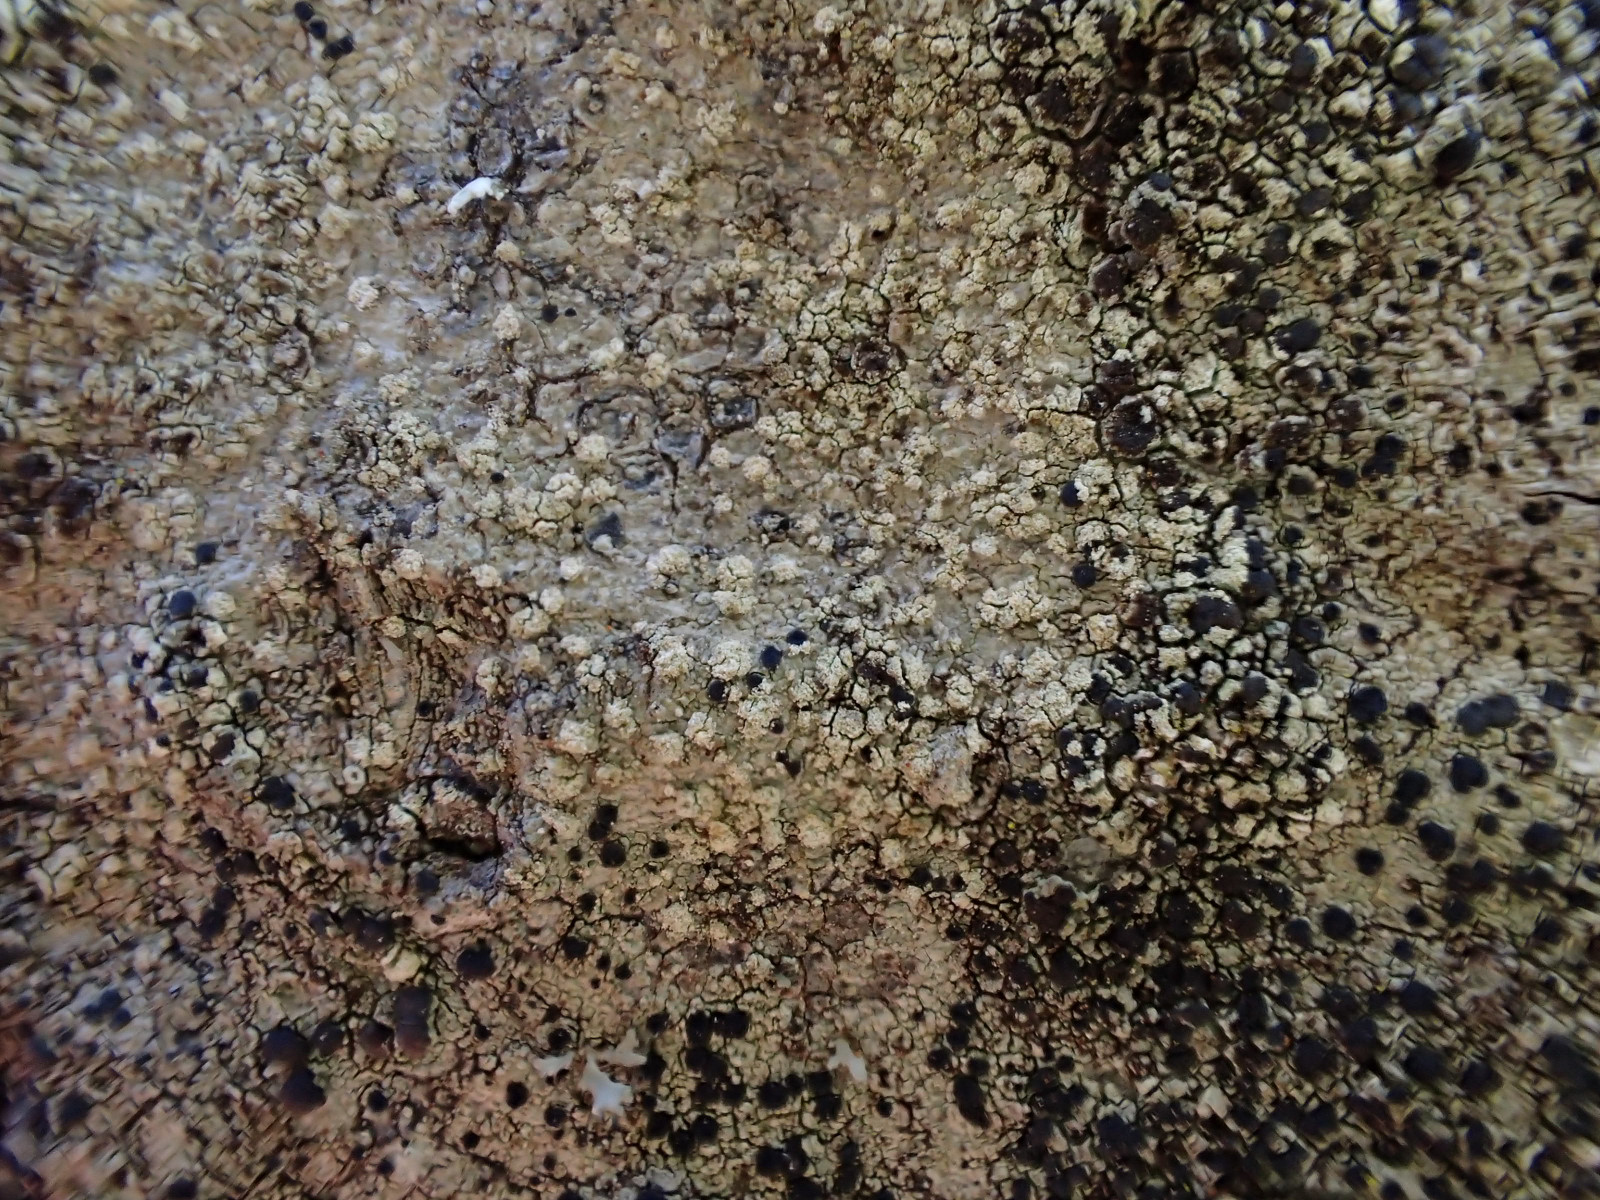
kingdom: Fungi
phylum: Ascomycota
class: Lecanoromycetes
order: Lecanorales
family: Lecanoraceae
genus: Lecidella
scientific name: Lecidella elaeochroma
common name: grågrøn skivelav
